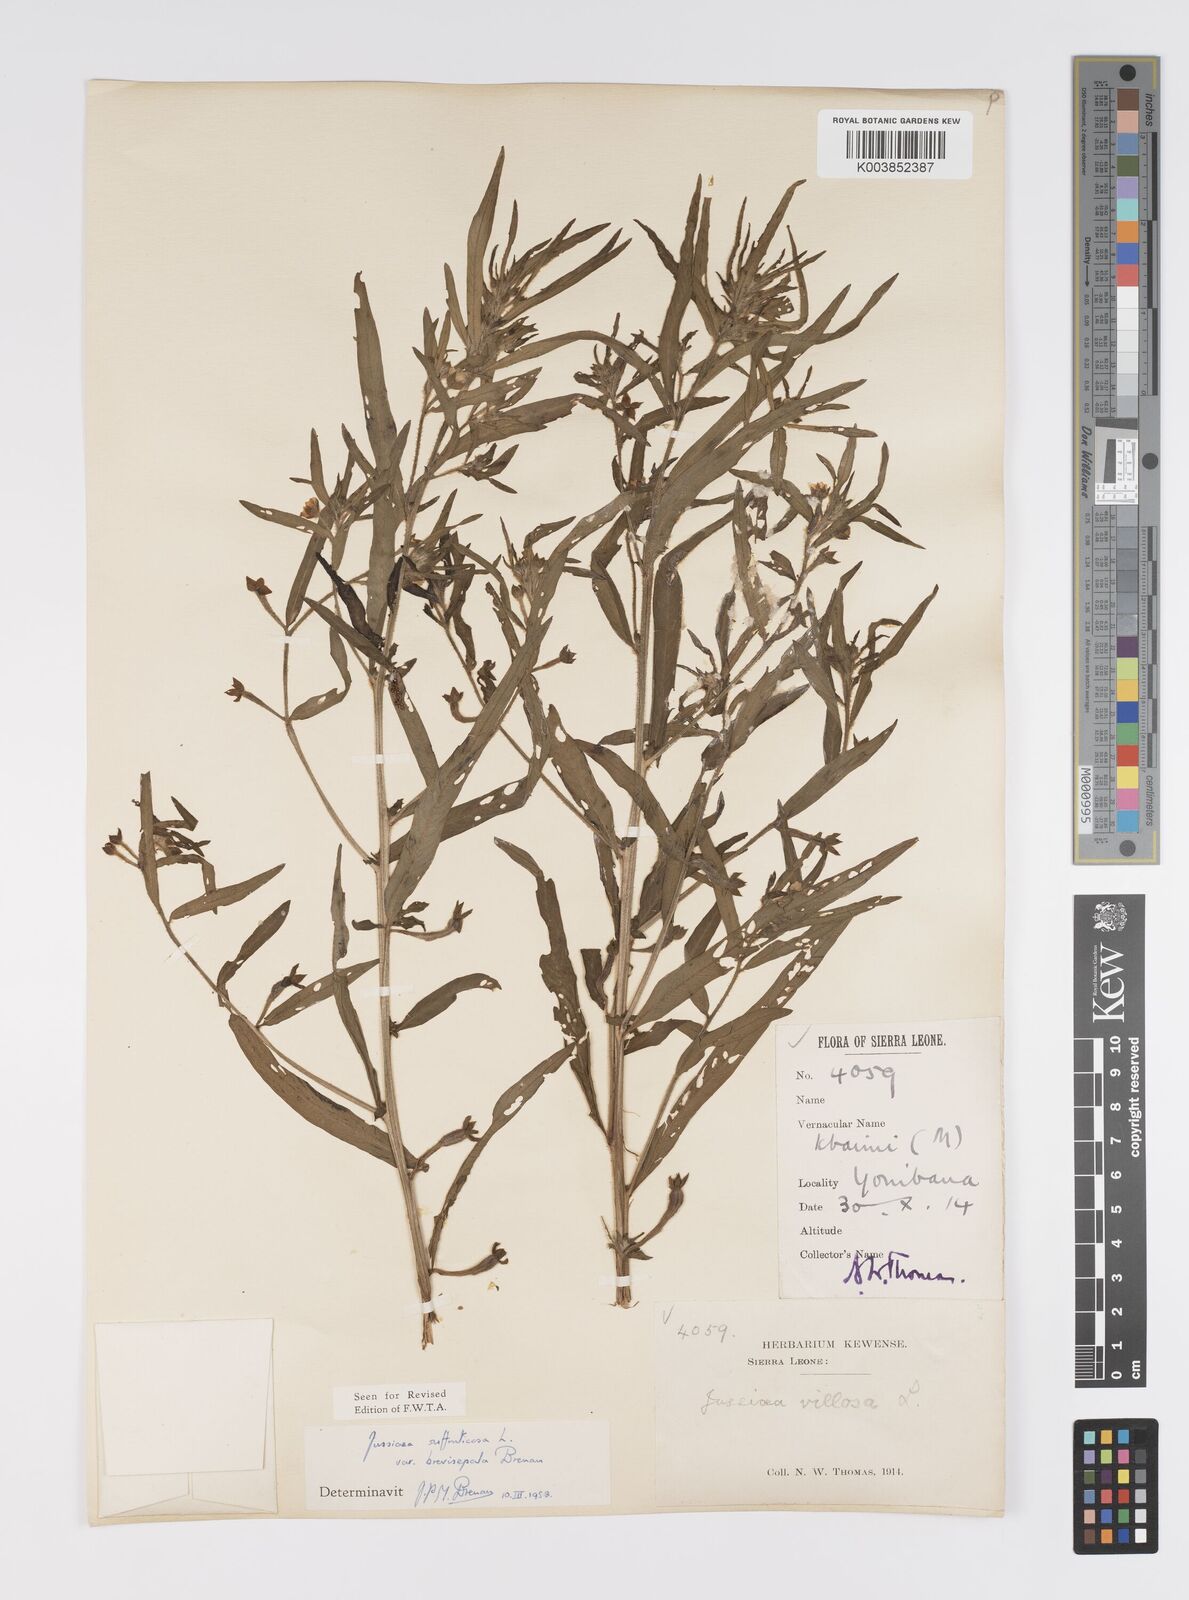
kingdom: Plantae
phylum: Tracheophyta
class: Magnoliopsida
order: Myrtales
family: Onagraceae
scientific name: Onagraceae
